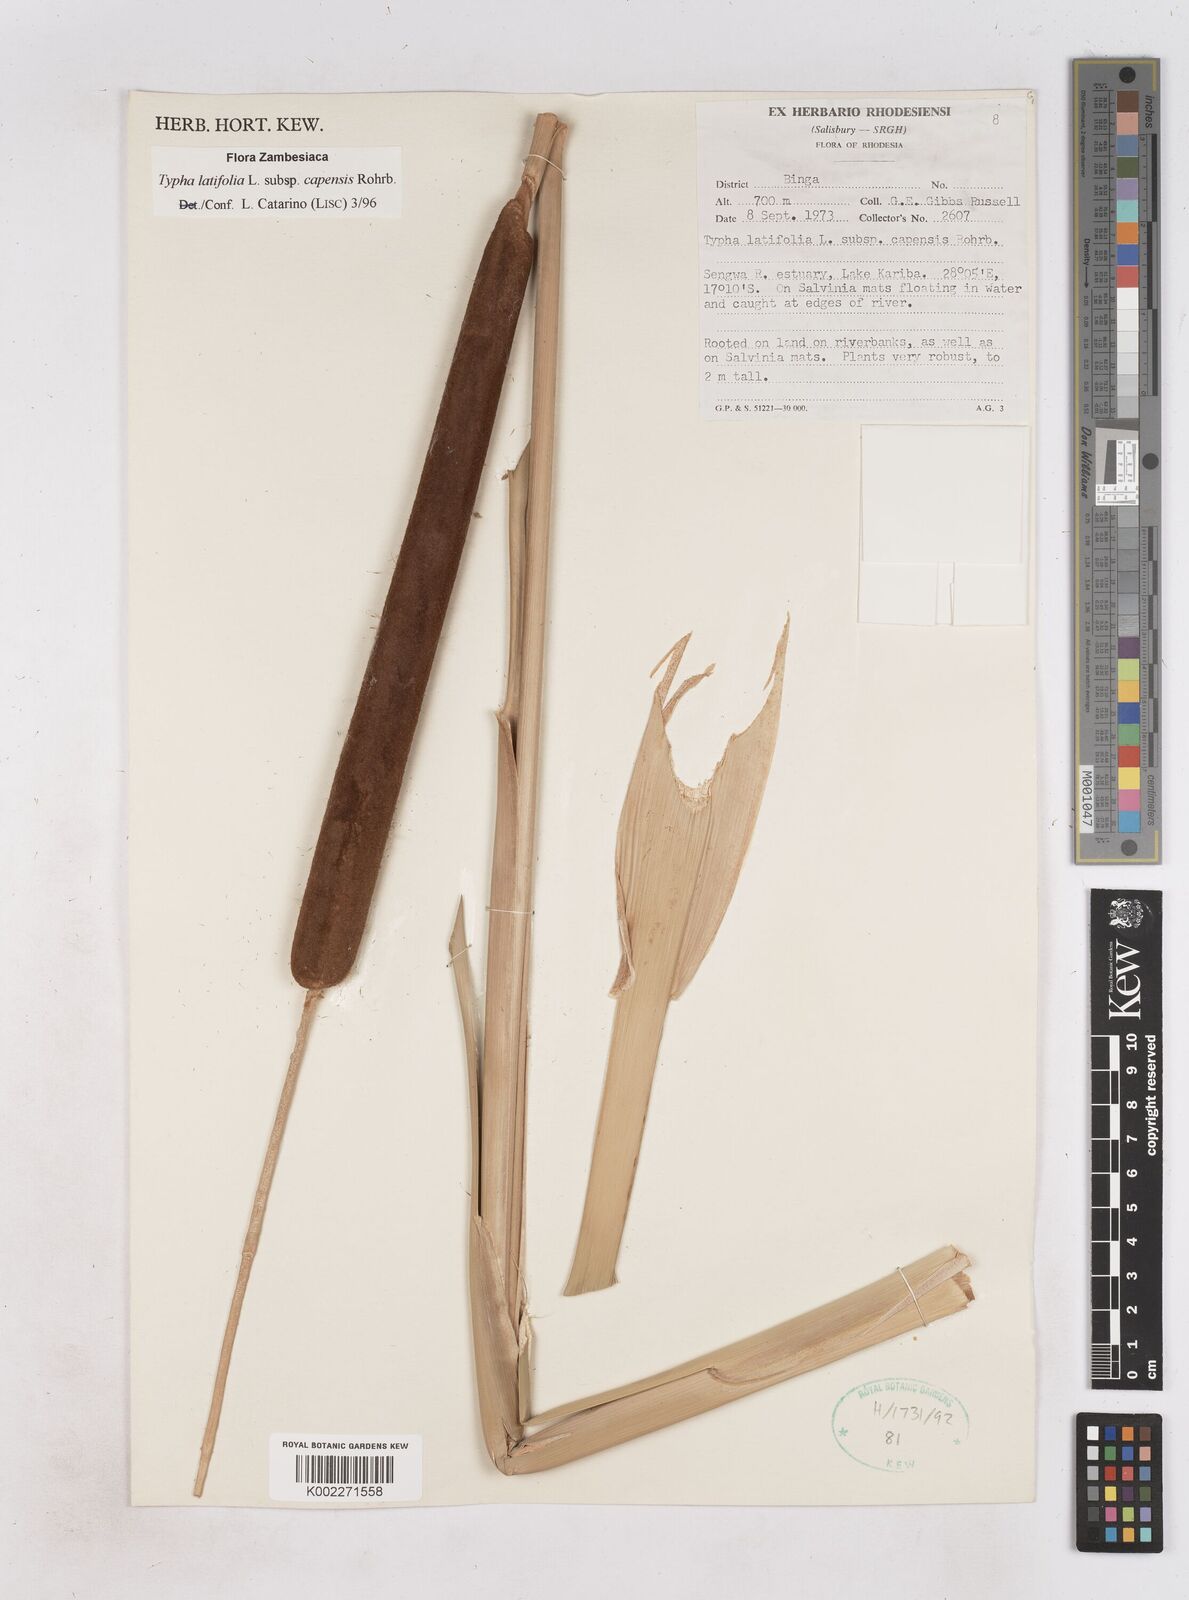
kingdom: Plantae
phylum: Tracheophyta
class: Liliopsida
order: Poales
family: Typhaceae
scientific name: Typhaceae
